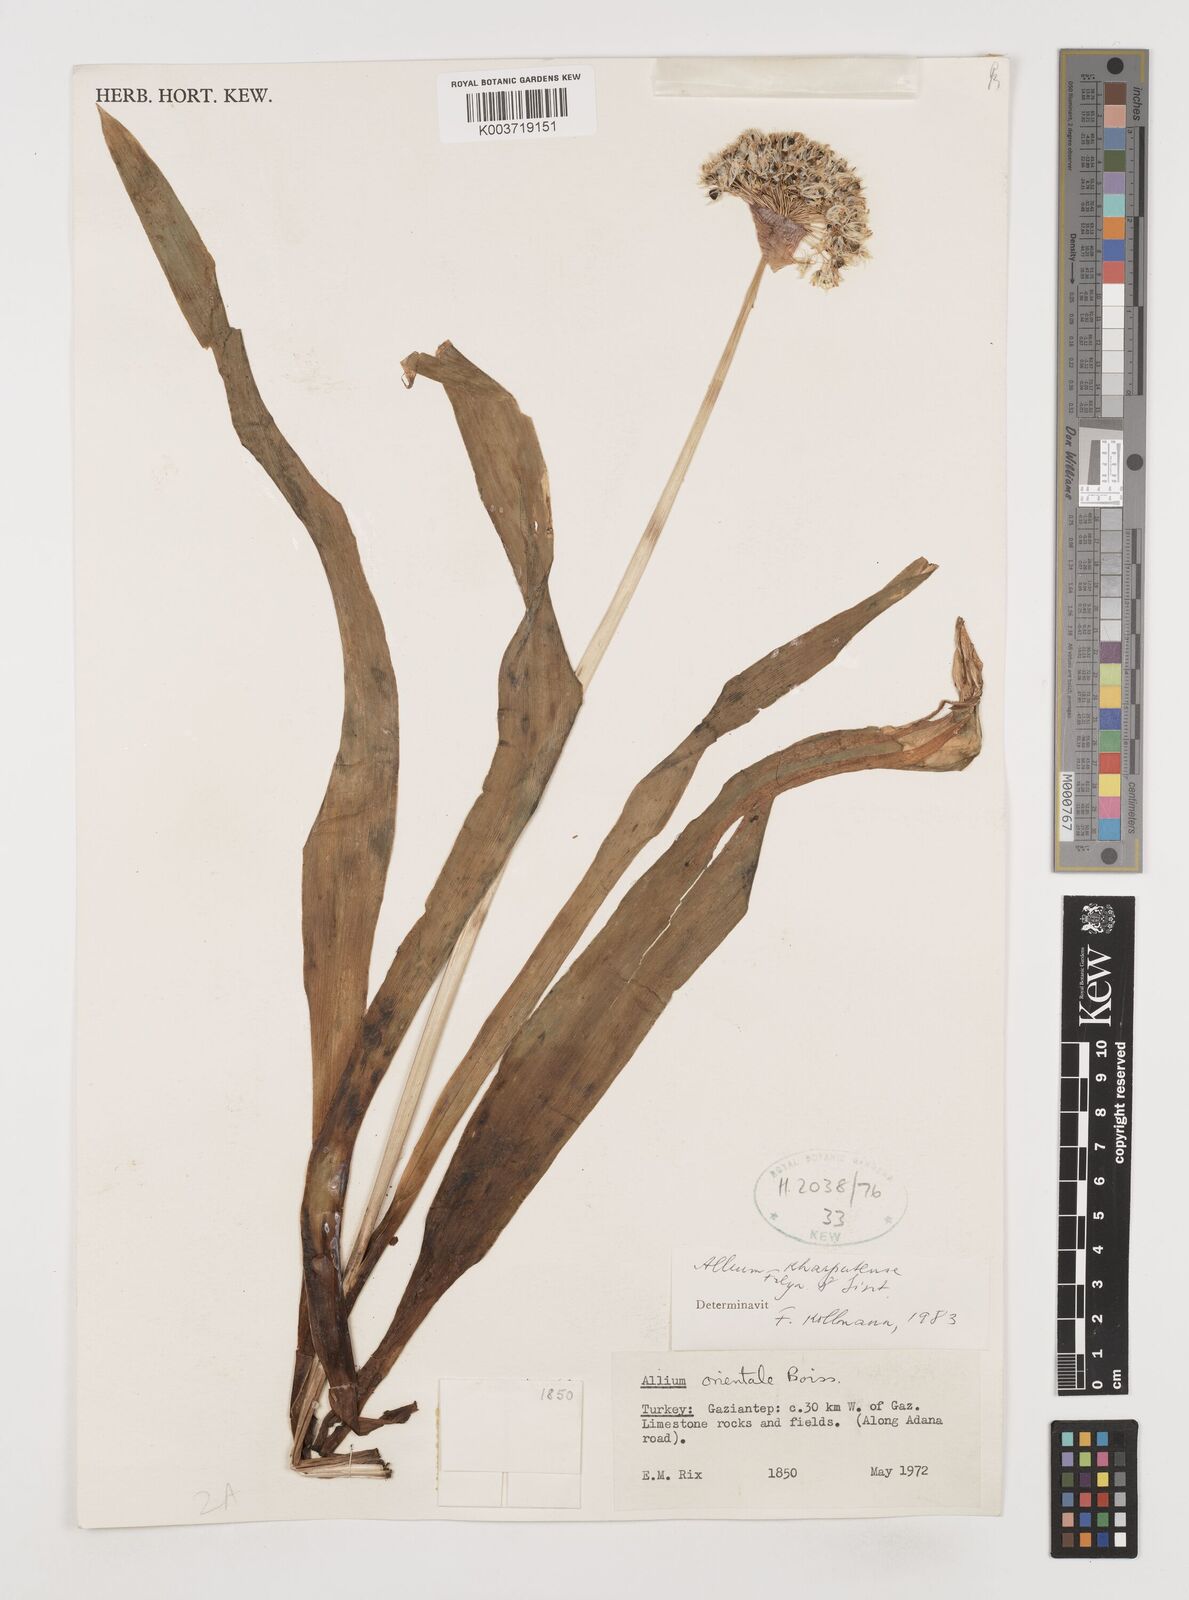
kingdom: Plantae
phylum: Tracheophyta
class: Liliopsida
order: Asparagales
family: Amaryllidaceae
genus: Allium
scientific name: Allium kharputense
